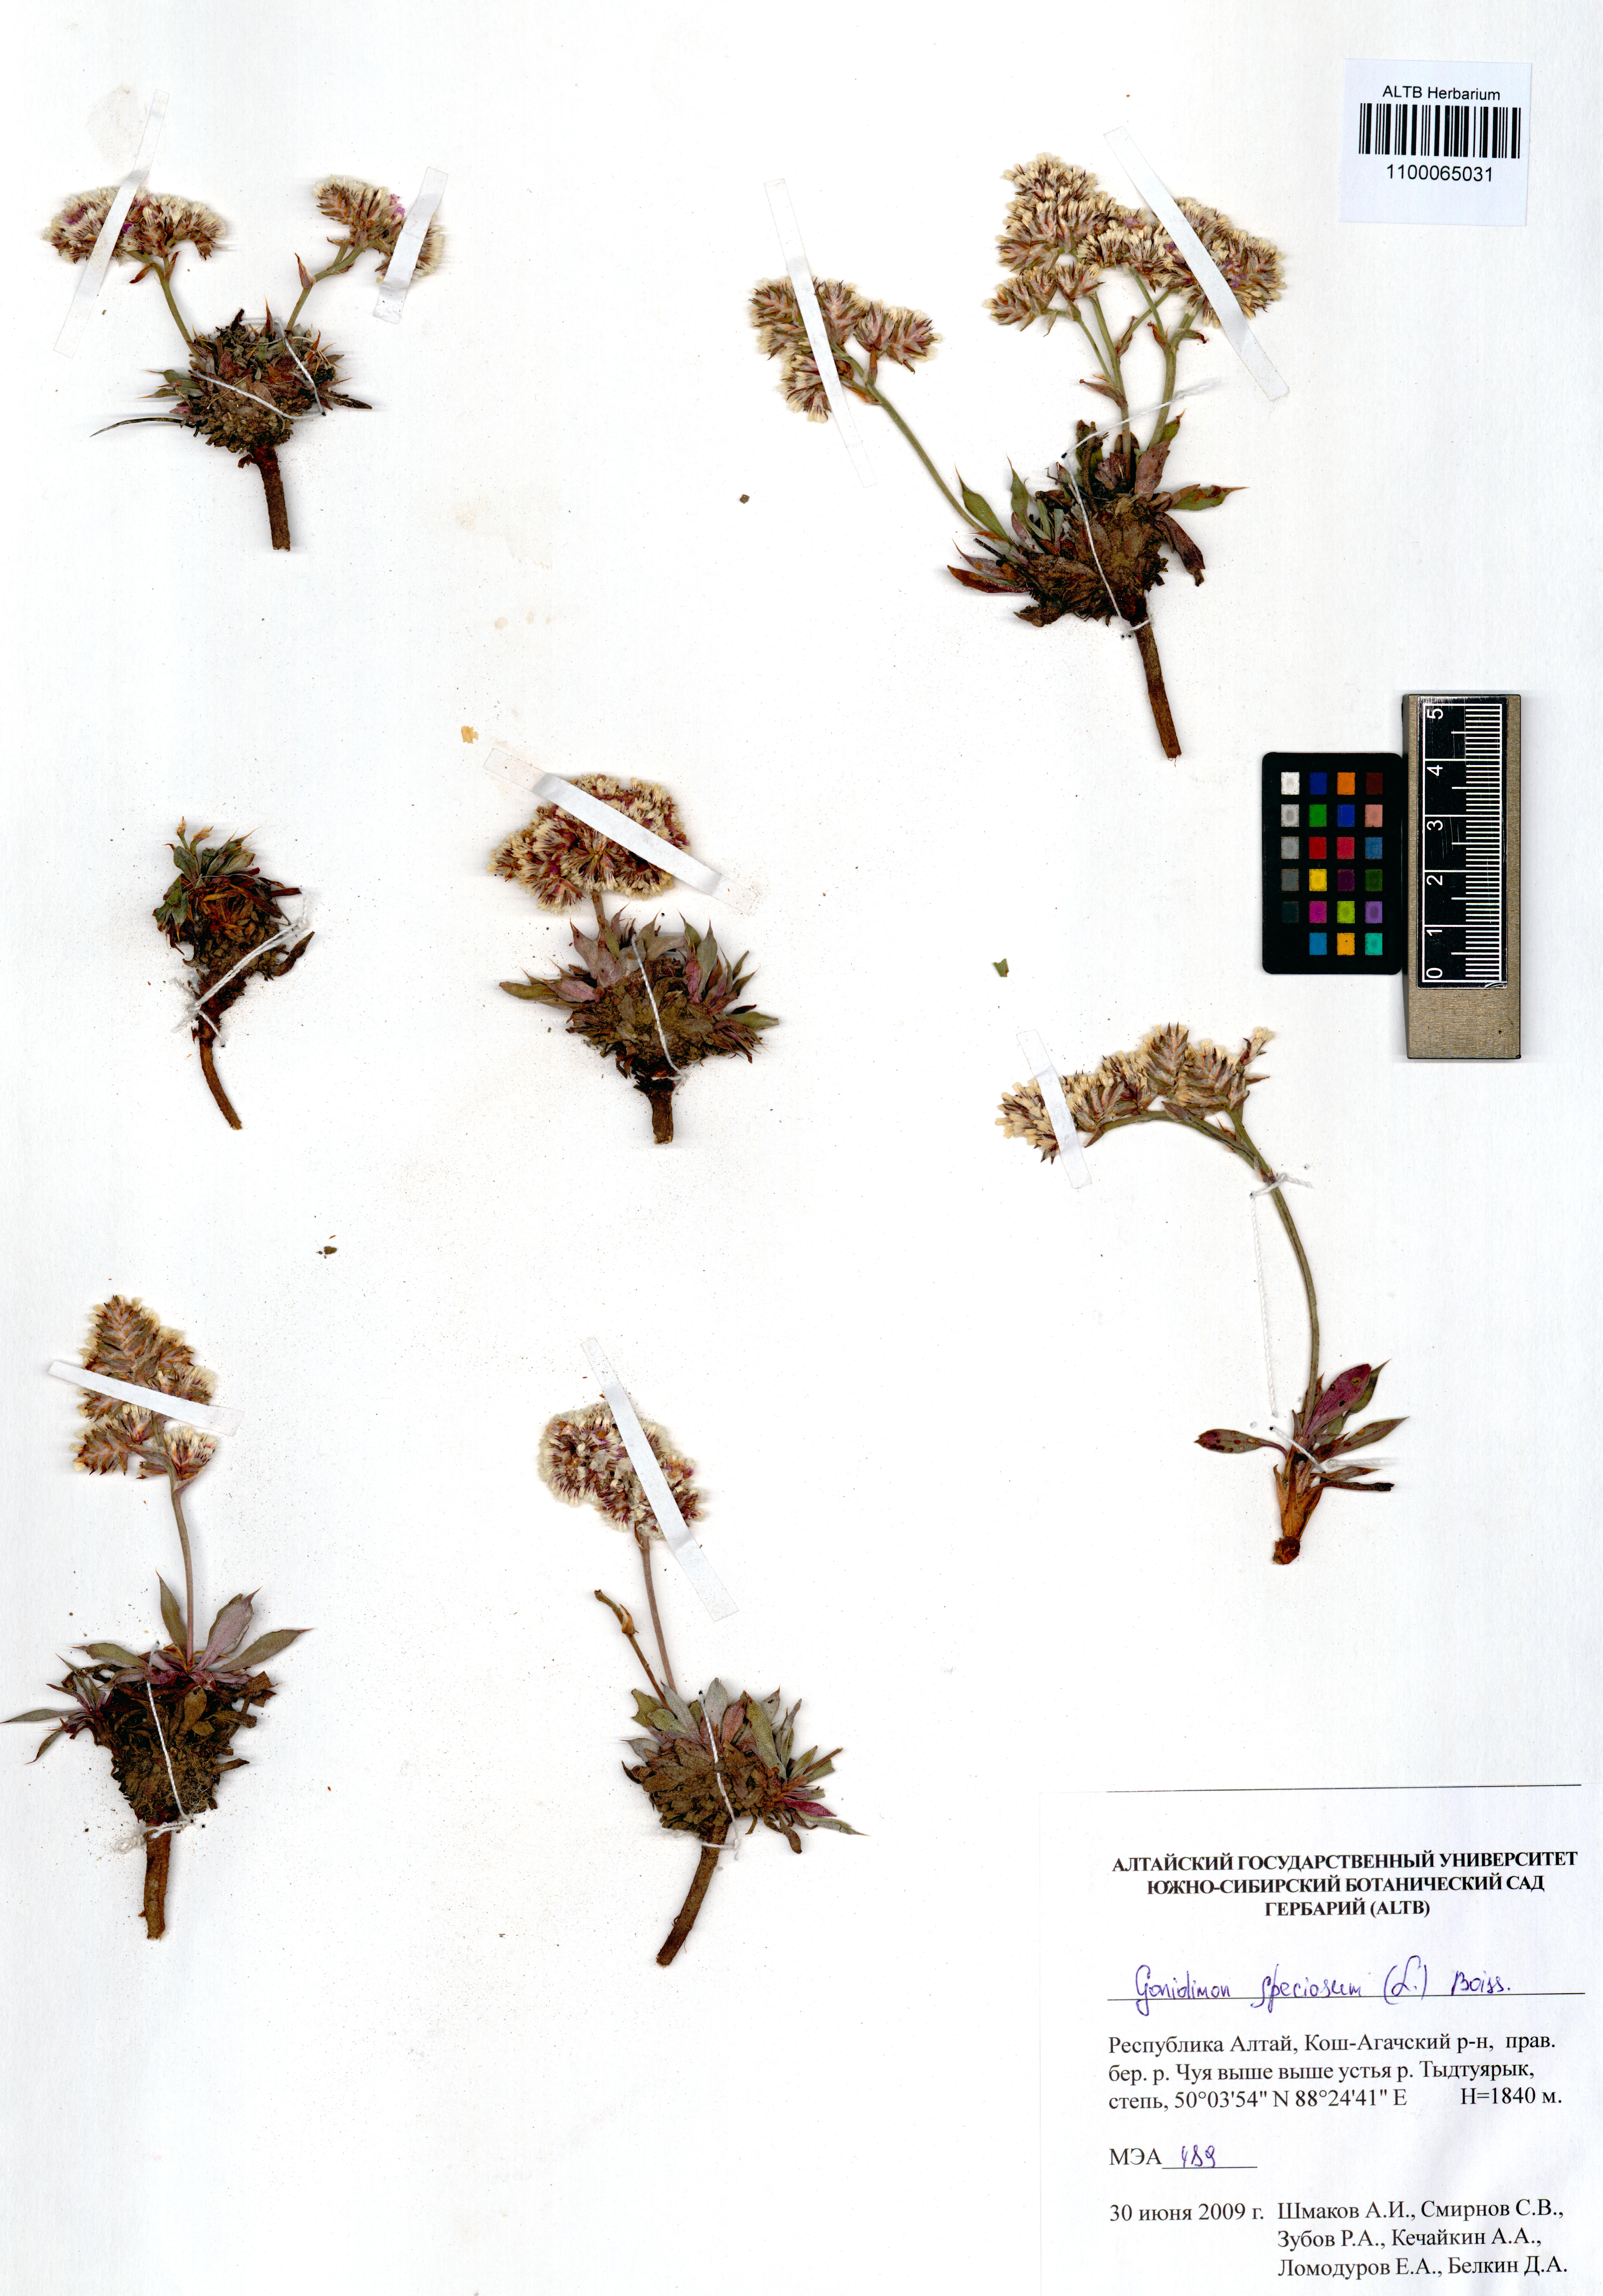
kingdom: Plantae
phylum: Tracheophyta
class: Magnoliopsida
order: Caryophyllales
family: Plumbaginaceae
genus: Goniolimon
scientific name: Goniolimon speciosum
